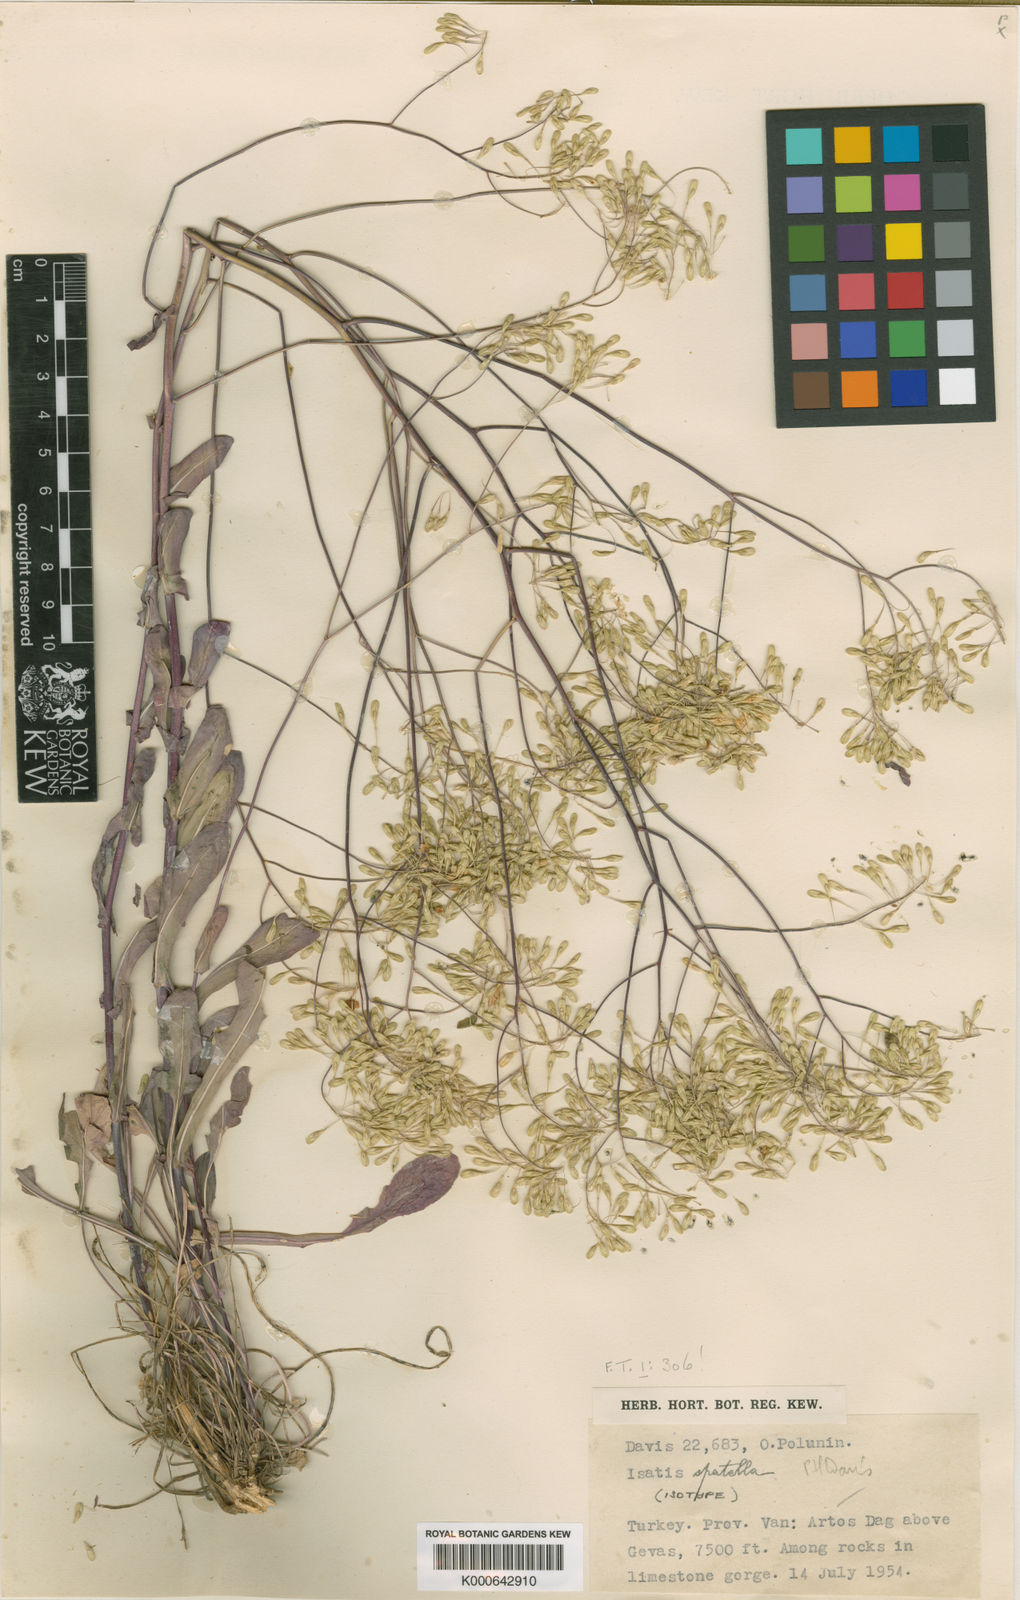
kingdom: Plantae
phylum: Tracheophyta
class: Magnoliopsida
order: Brassicales
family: Brassicaceae
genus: Isatis
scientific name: Isatis spatella
